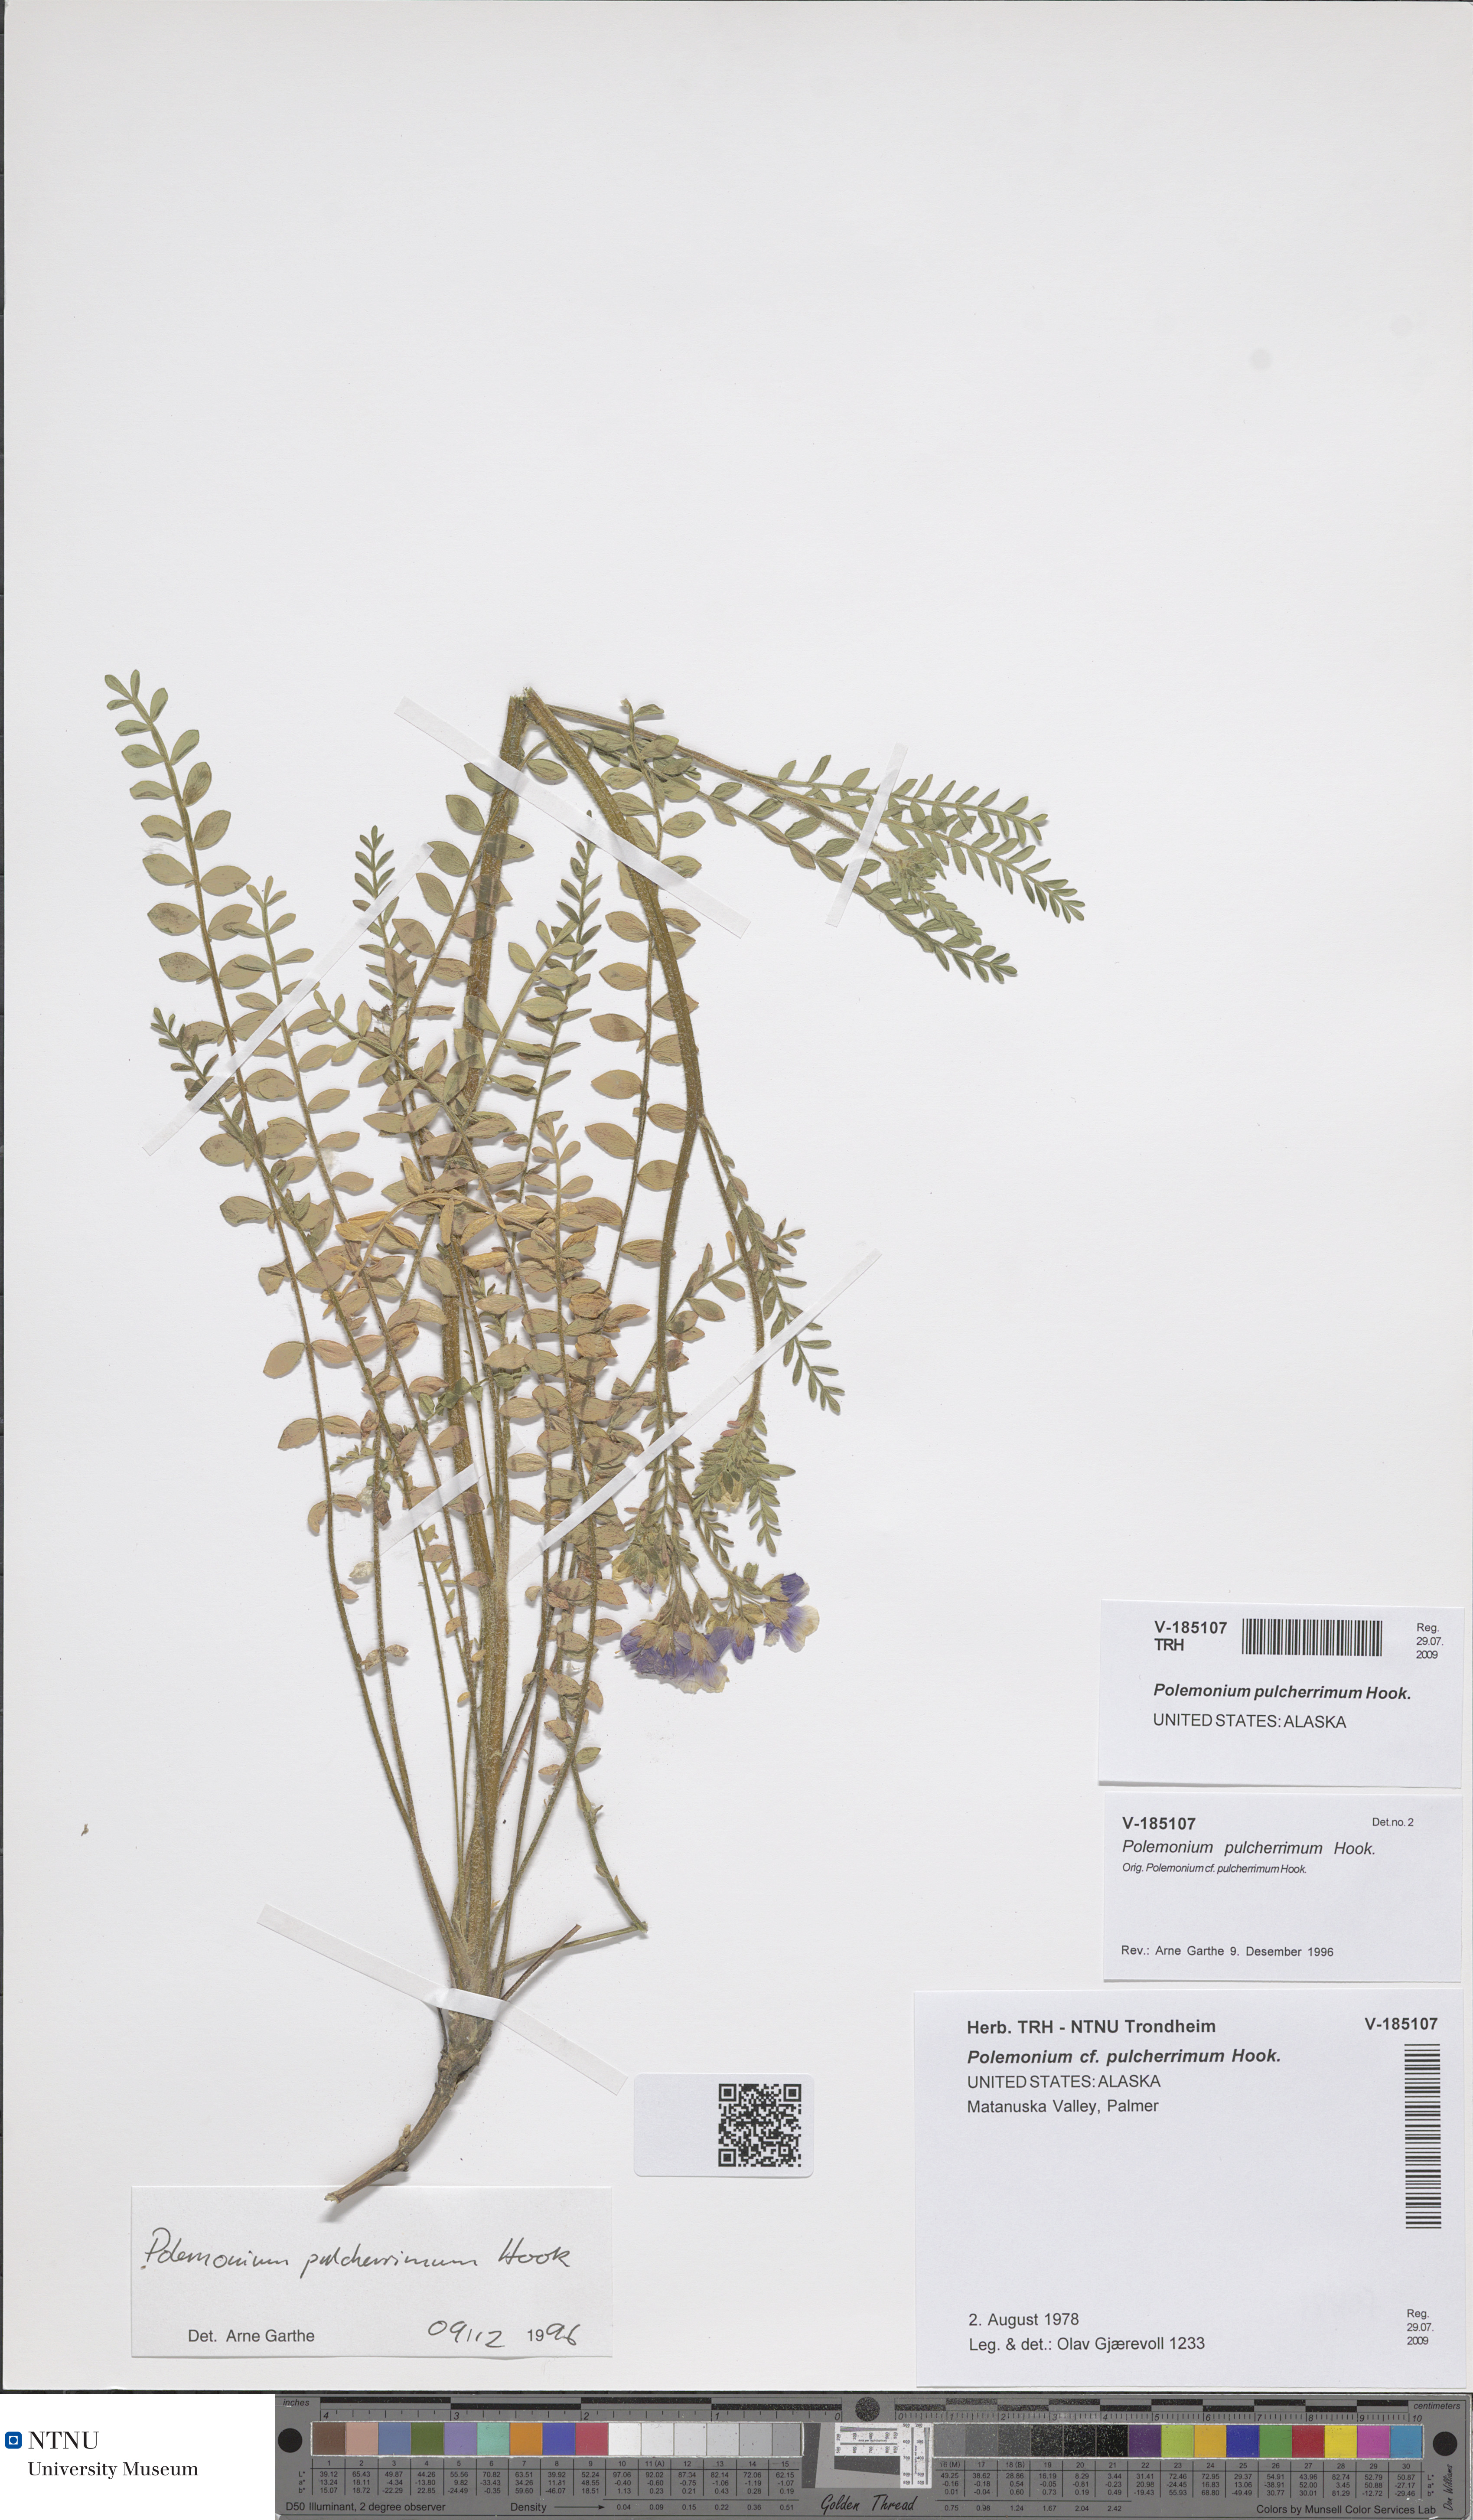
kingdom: Plantae
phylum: Tracheophyta
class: Magnoliopsida
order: Ericales
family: Polemoniaceae
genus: Polemonium
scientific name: Polemonium pulcherrimum
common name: Short jacob's-ladder
